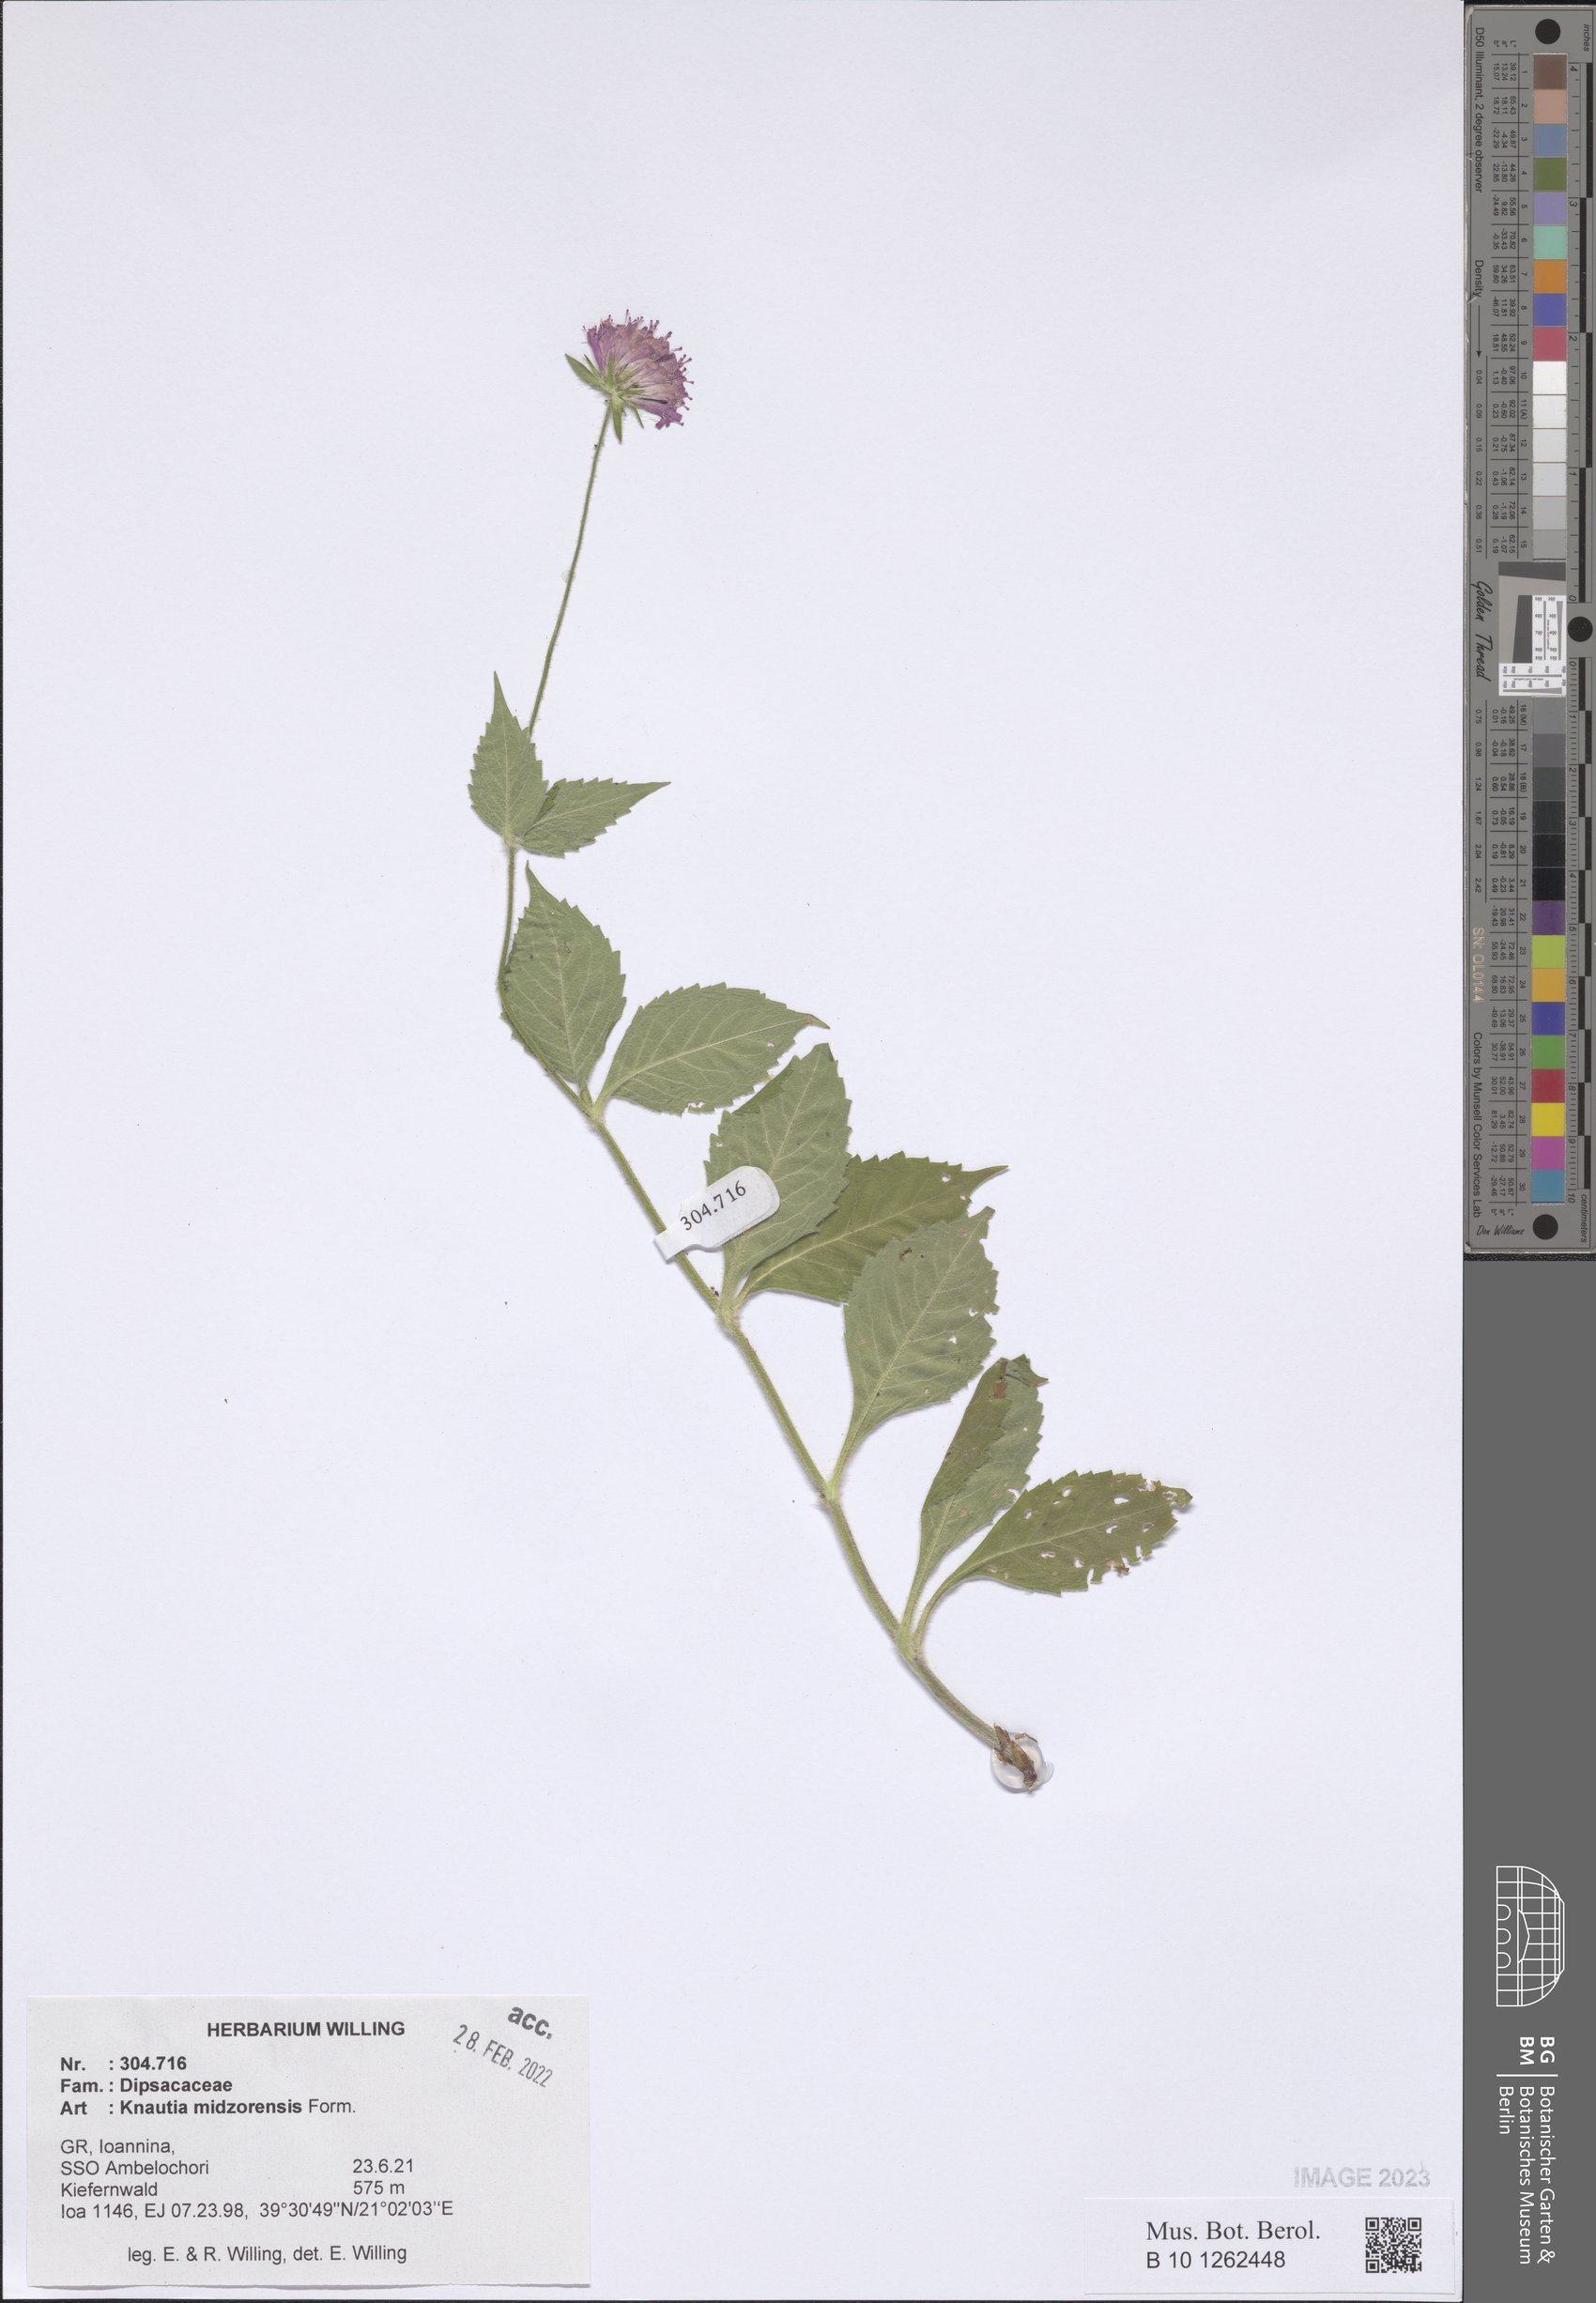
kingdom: Plantae
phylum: Tracheophyta
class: Magnoliopsida
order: Dipsacales
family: Caprifoliaceae
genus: Knautia
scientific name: Knautia midzorensis
